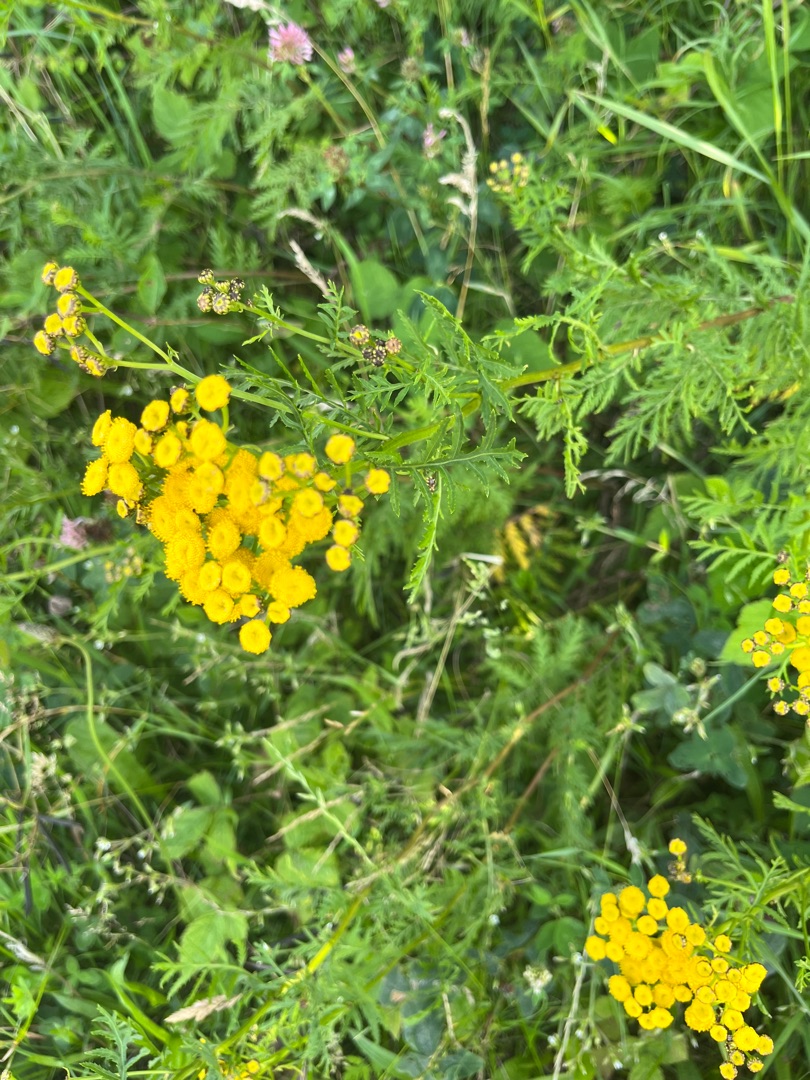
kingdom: Plantae
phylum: Tracheophyta
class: Magnoliopsida
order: Asterales
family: Asteraceae
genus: Tanacetum
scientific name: Tanacetum vulgare
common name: Rejnfan
